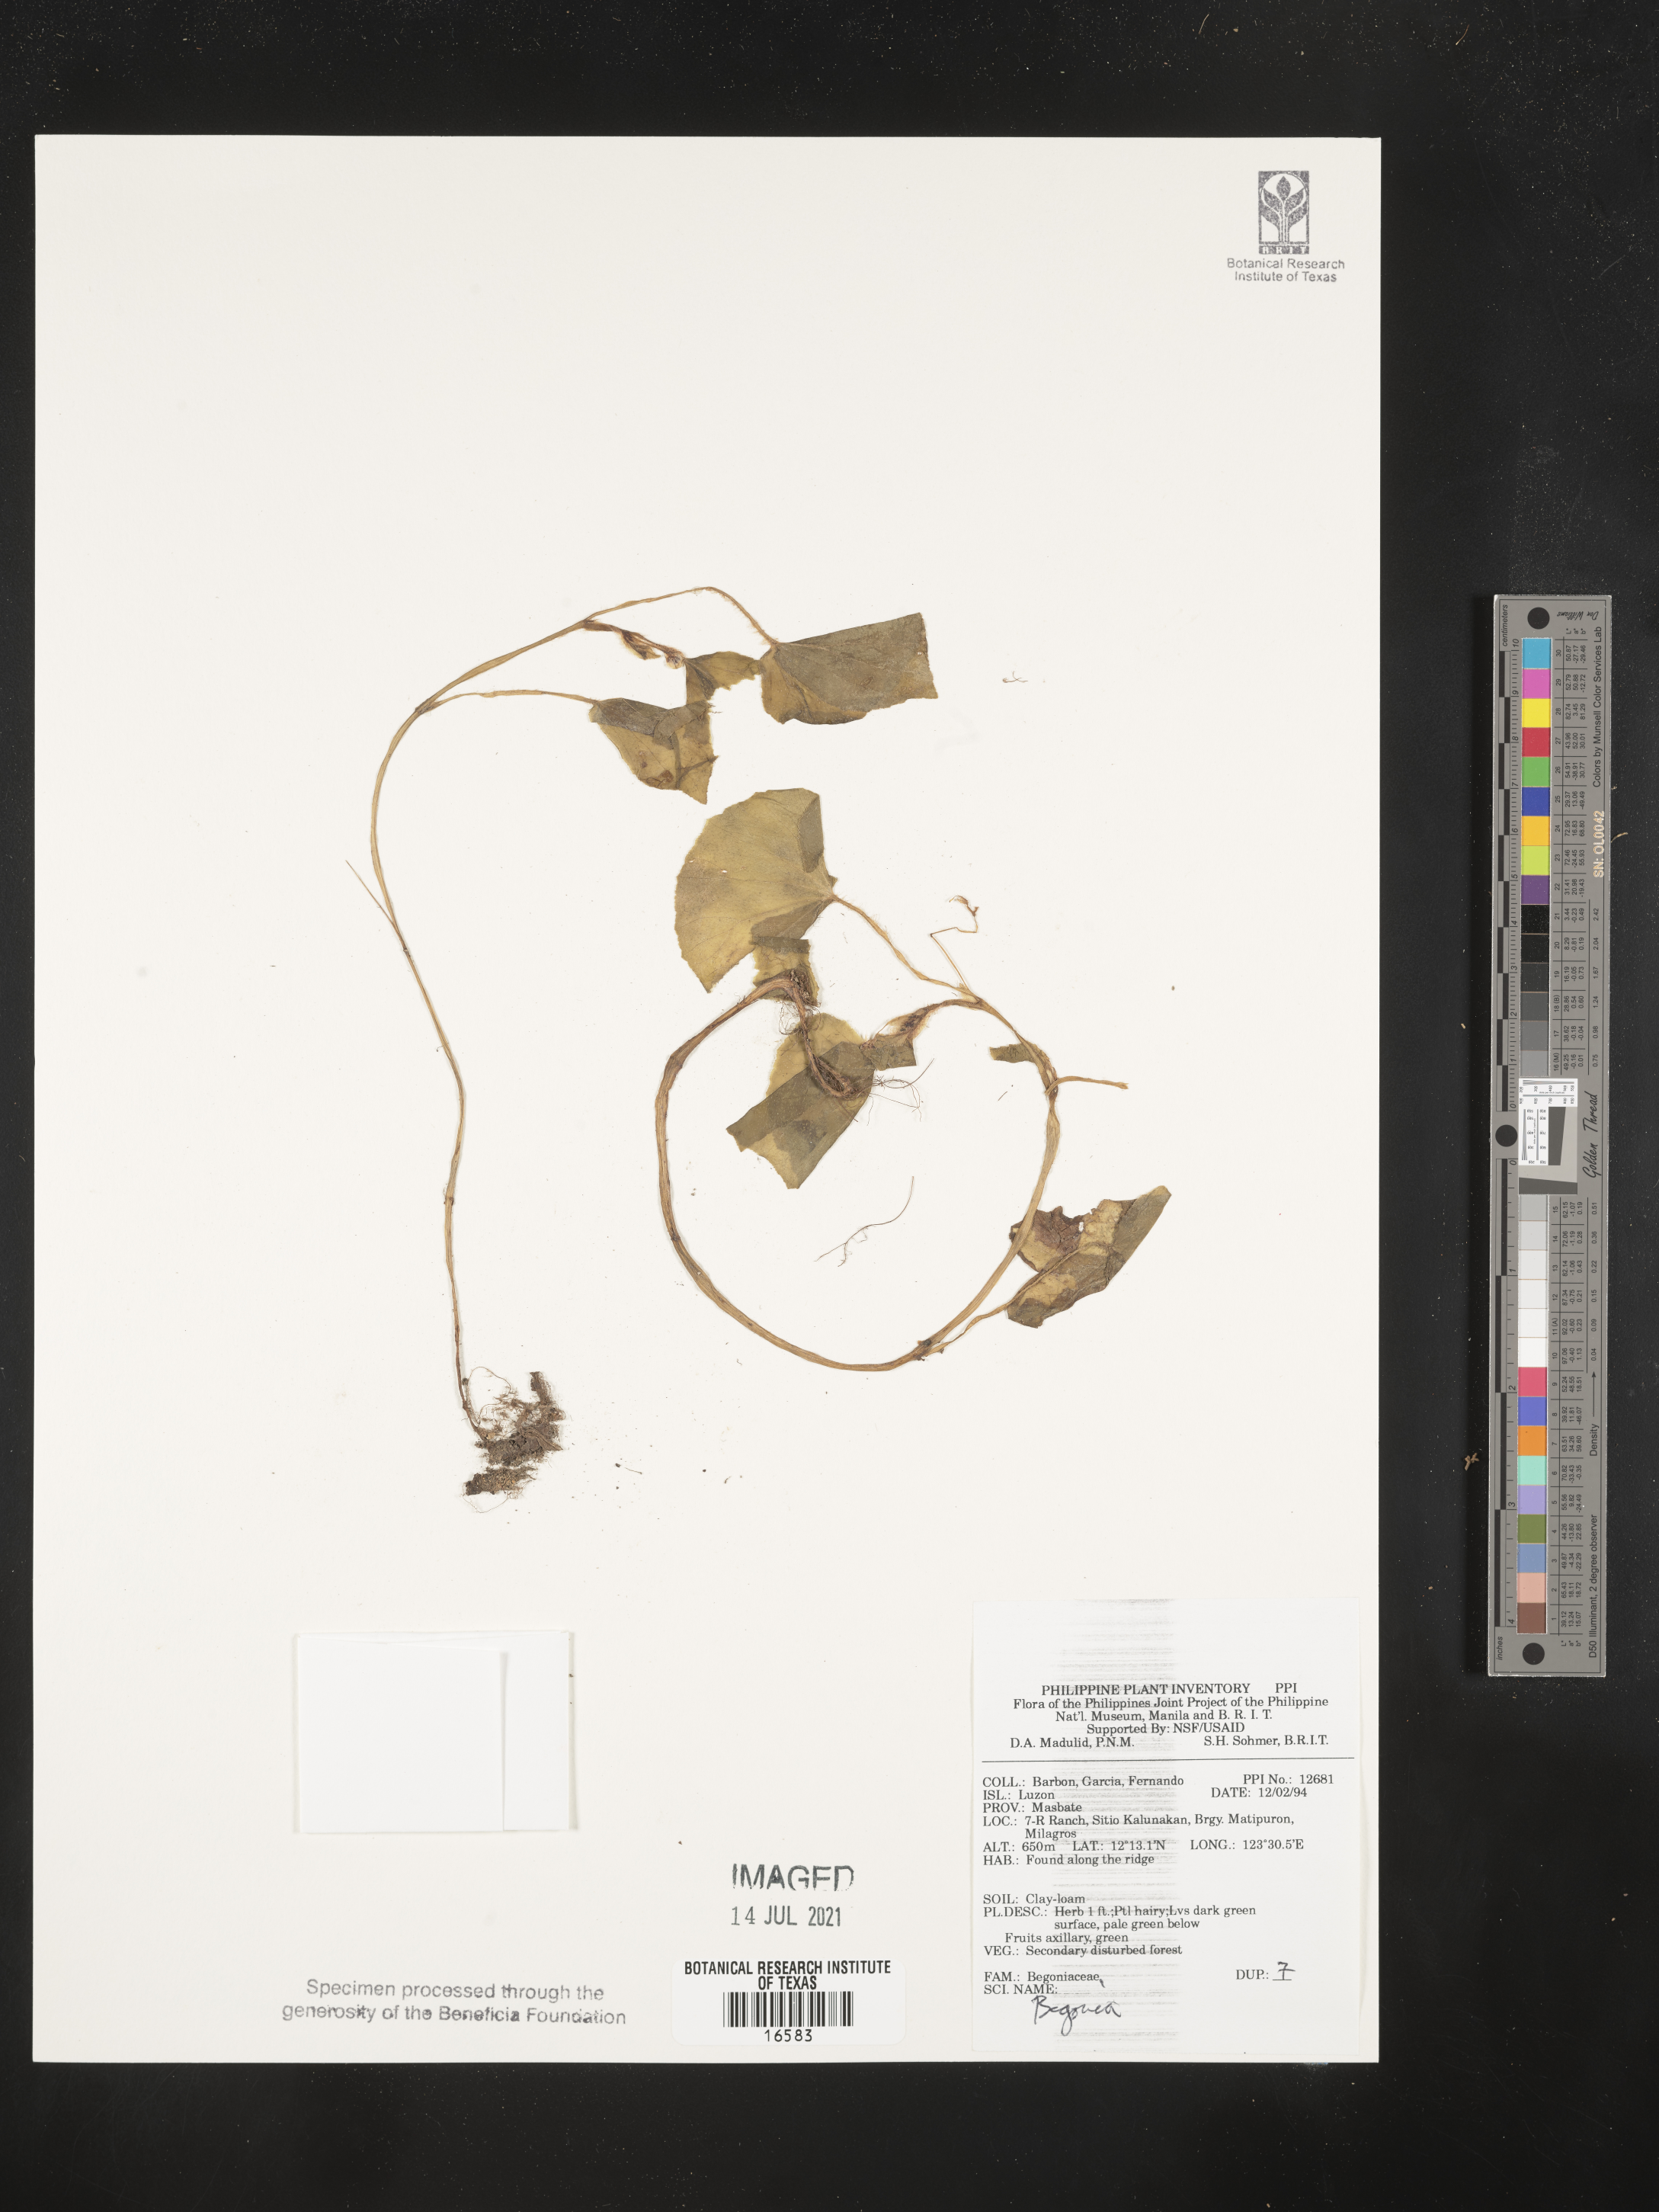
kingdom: Plantae
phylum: Tracheophyta
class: Magnoliopsida
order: Cucurbitales
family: Begoniaceae
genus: Begonia
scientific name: Begonia
